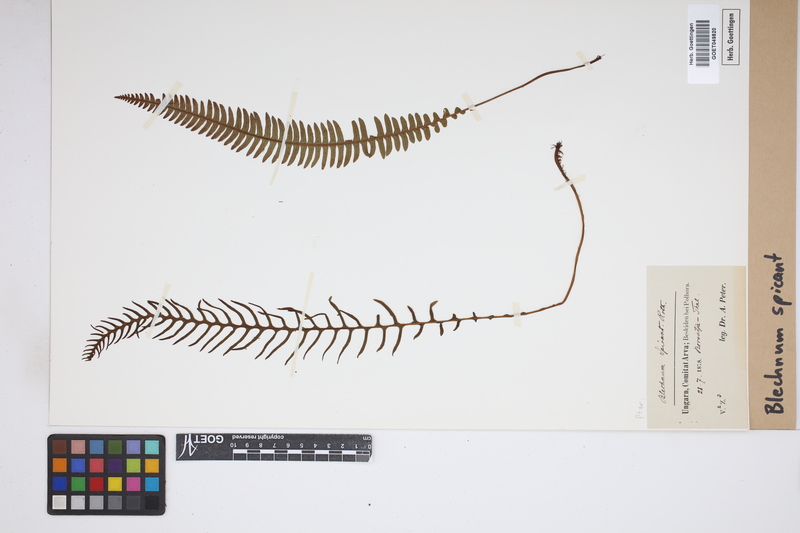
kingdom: Plantae
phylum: Tracheophyta
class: Polypodiopsida
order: Polypodiales
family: Blechnaceae
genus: Struthiopteris
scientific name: Struthiopteris spicant
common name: Deer fern
